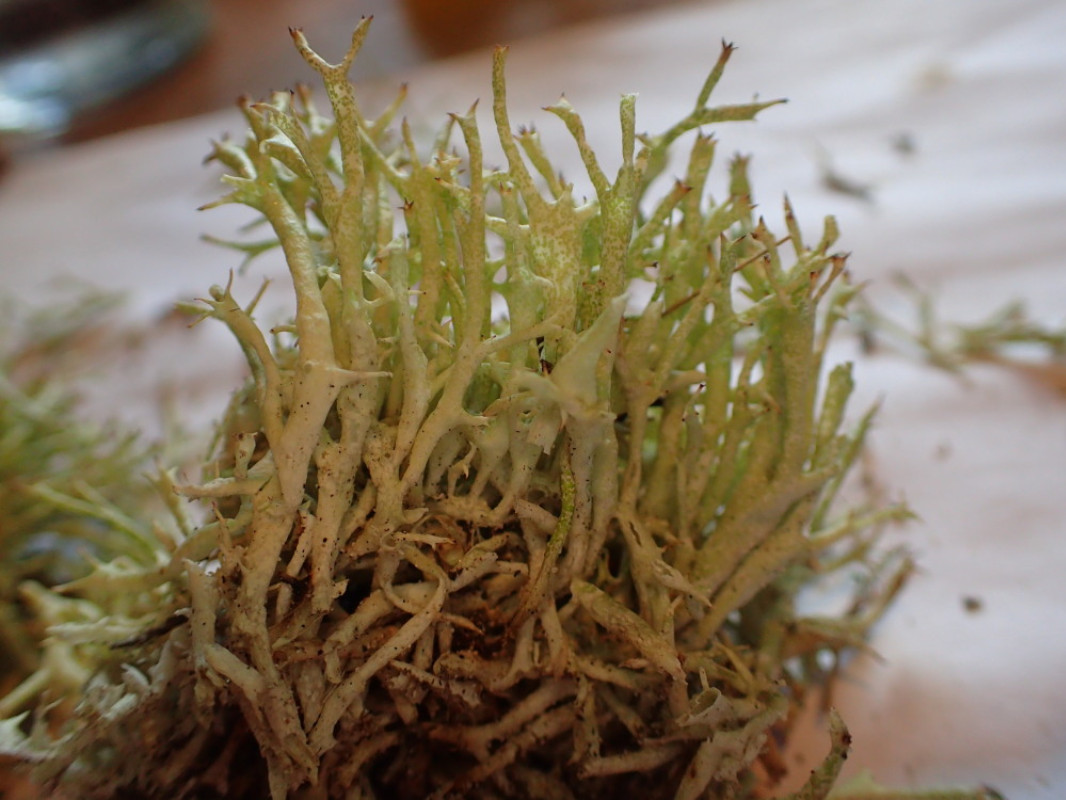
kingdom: Fungi
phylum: Ascomycota
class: Lecanoromycetes
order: Lecanorales
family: Cladoniaceae
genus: Cladonia
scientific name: Cladonia uncialis
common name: pigget bægerlav
